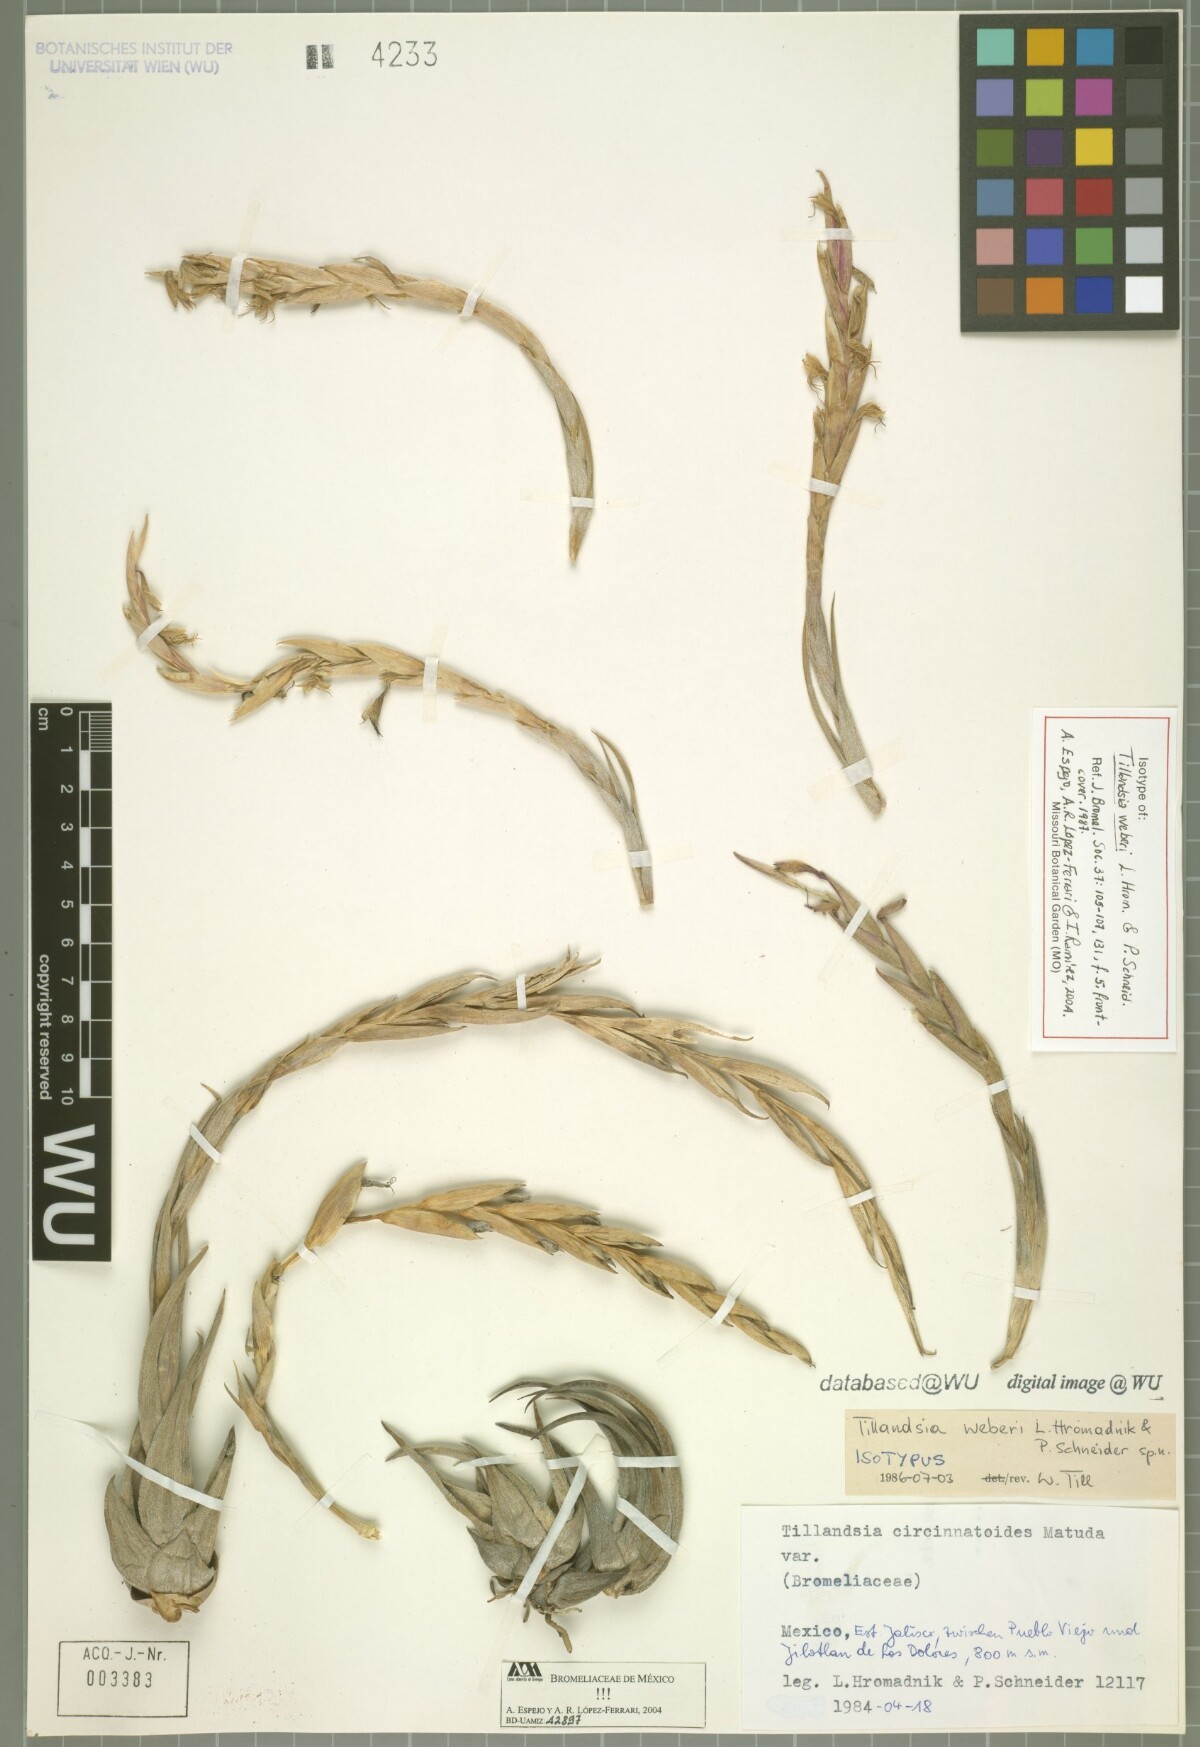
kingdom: Plantae
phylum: Tracheophyta
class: Liliopsida
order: Poales
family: Bromeliaceae
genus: Tillandsia
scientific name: Tillandsia weberi
